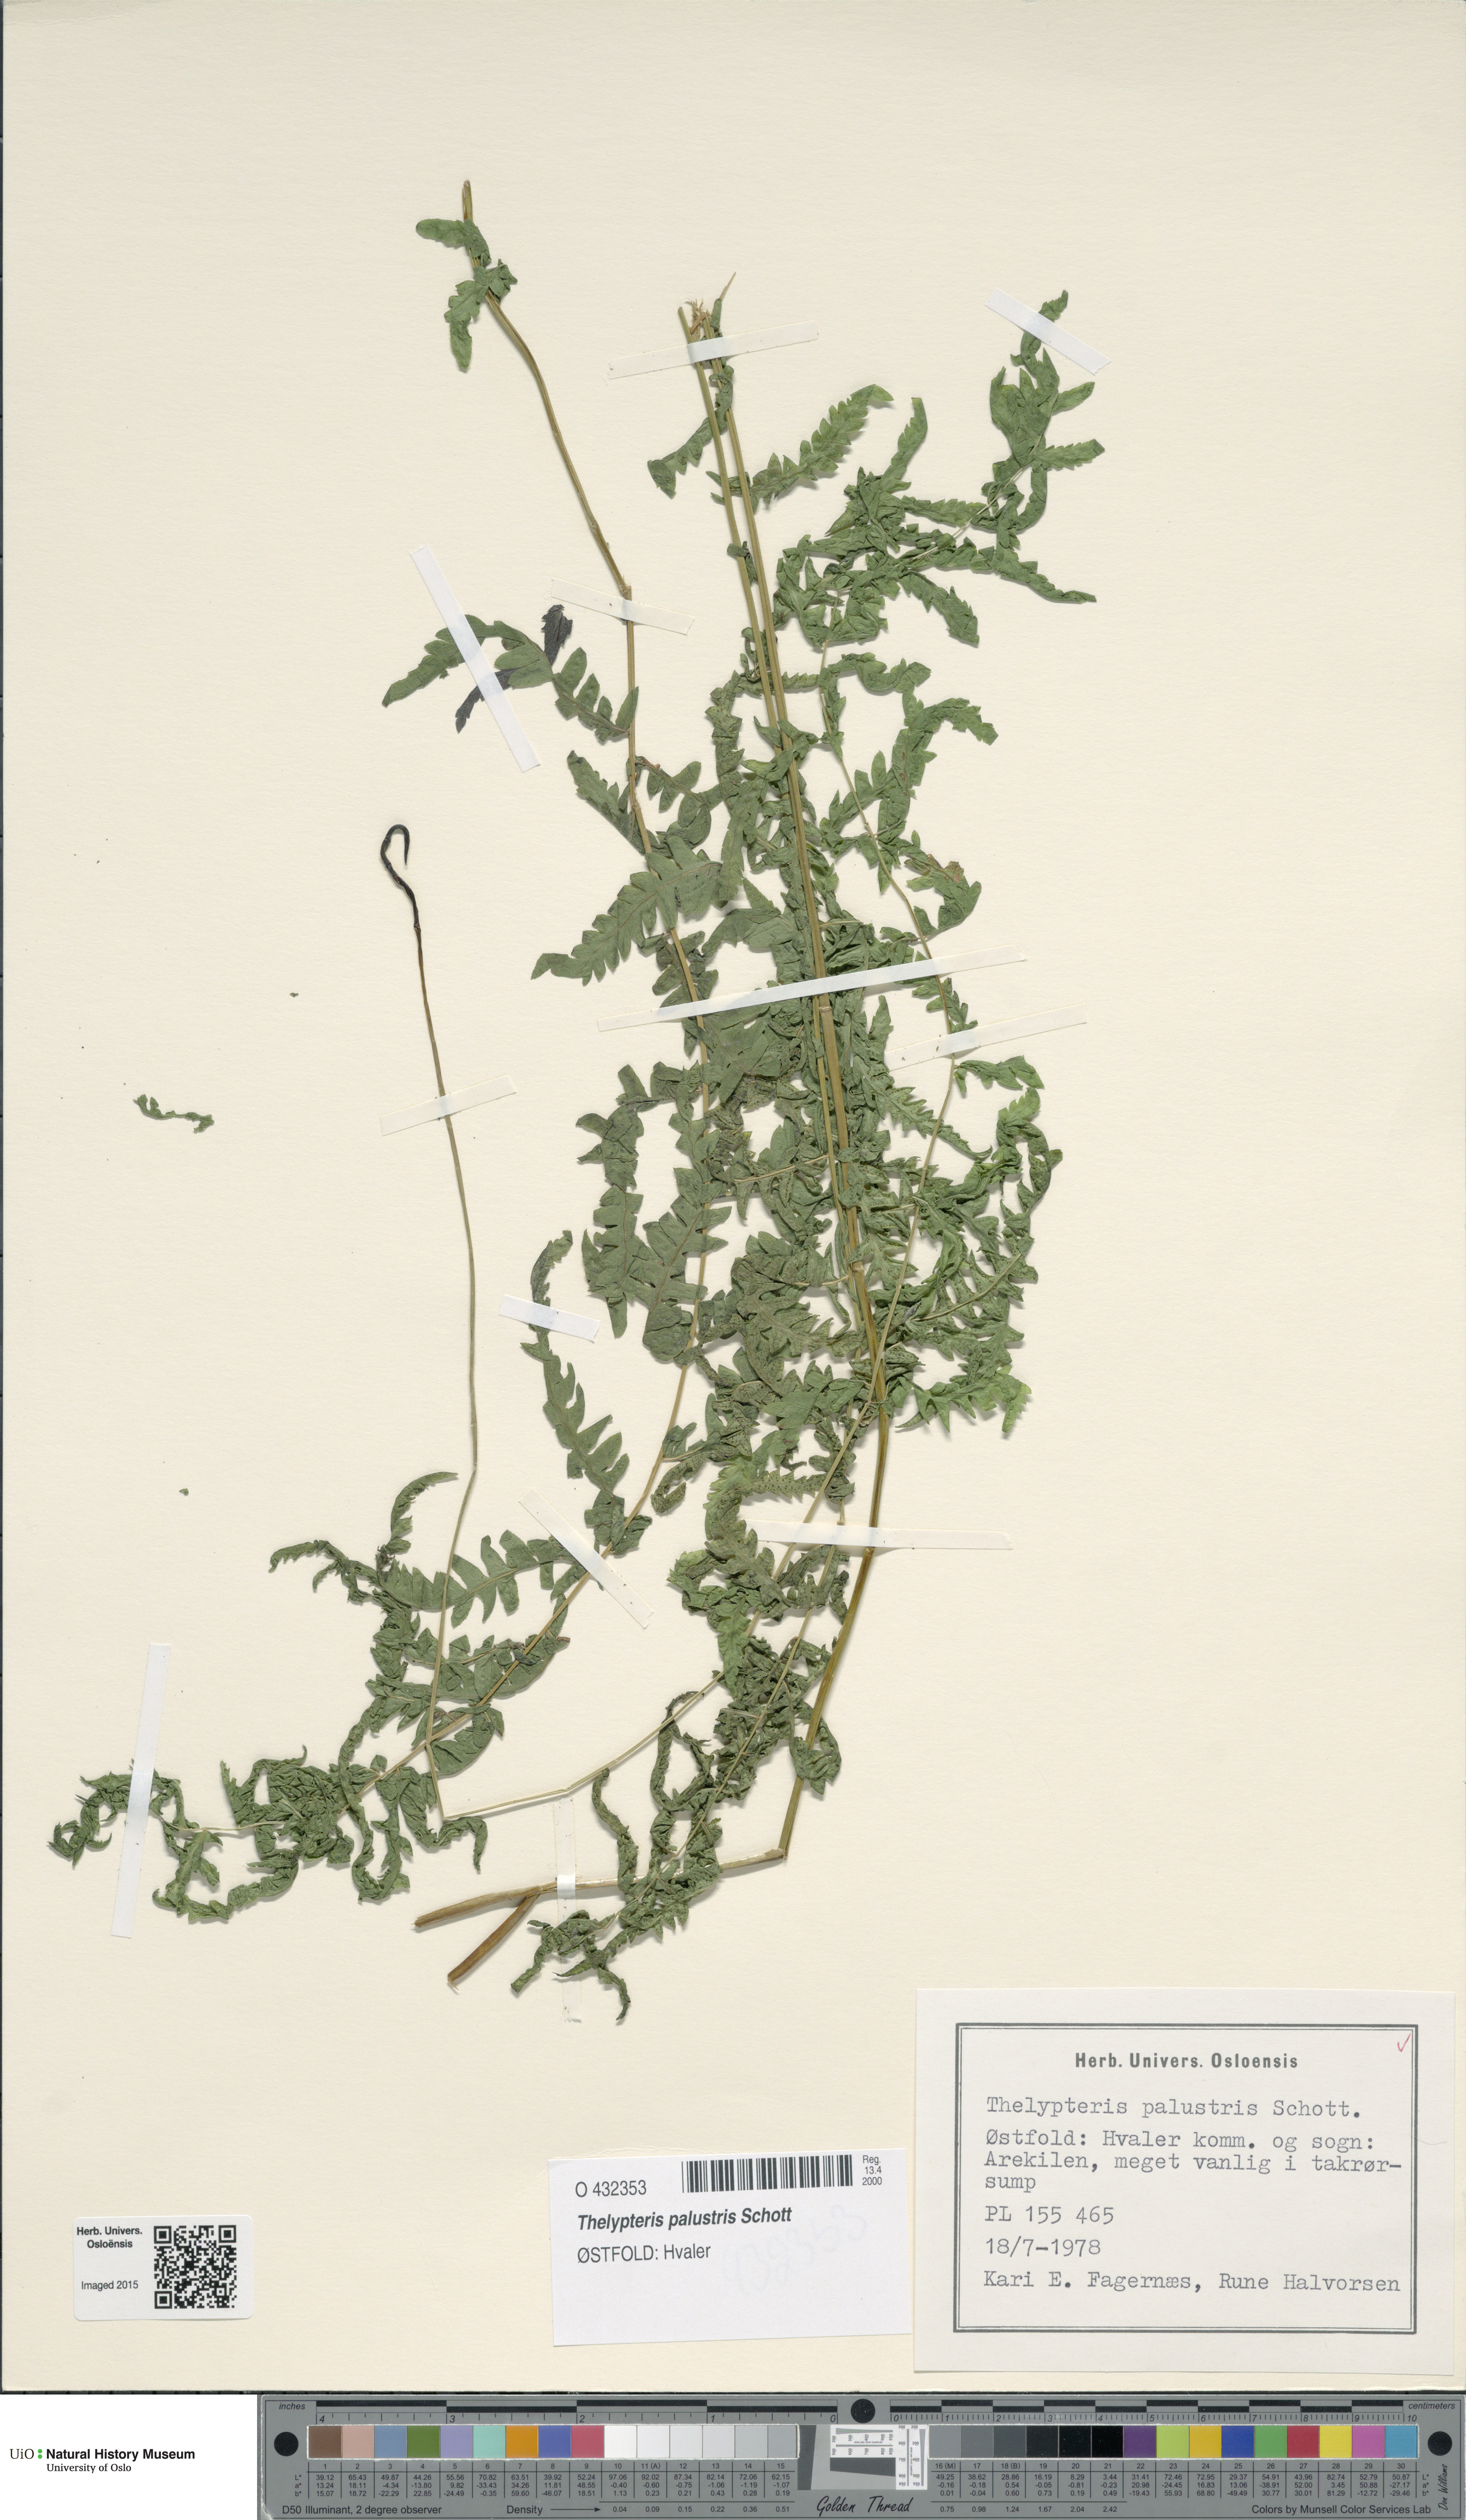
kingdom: Plantae
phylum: Tracheophyta
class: Polypodiopsida
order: Polypodiales
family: Thelypteridaceae
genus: Thelypteris
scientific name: Thelypteris palustris
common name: Marsh fern
